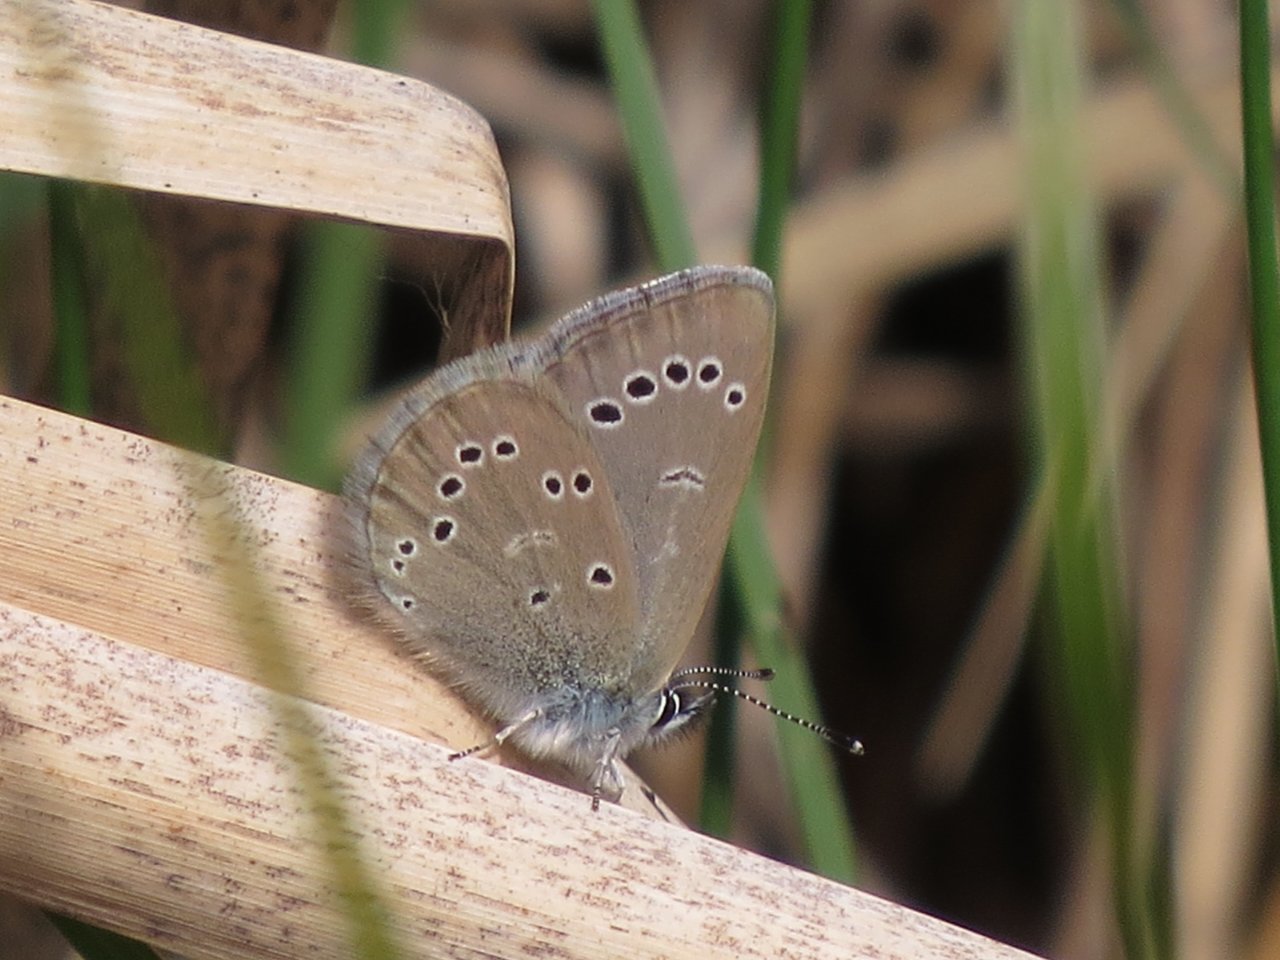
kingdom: Animalia
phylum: Arthropoda
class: Insecta
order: Lepidoptera
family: Lycaenidae
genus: Glaucopsyche
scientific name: Glaucopsyche lygdamus
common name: Silvery Blue
